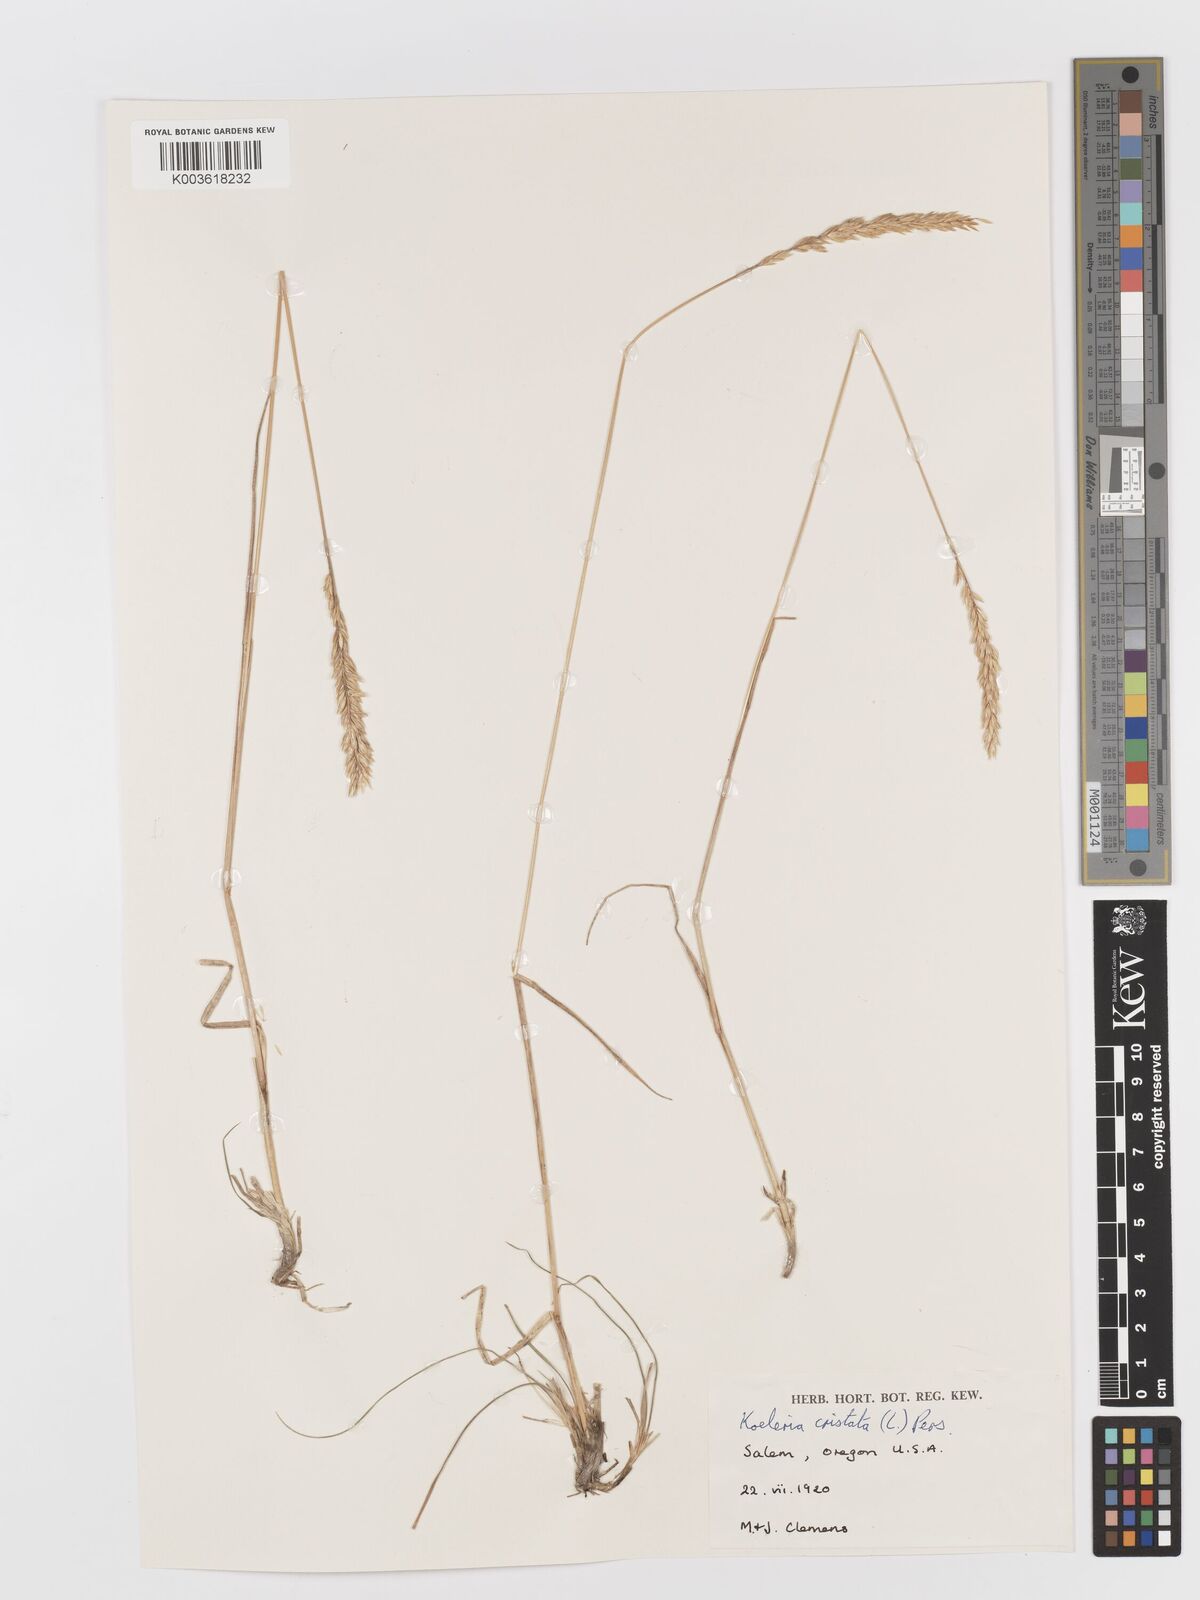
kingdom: Plantae
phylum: Tracheophyta
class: Liliopsida
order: Poales
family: Poaceae
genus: Koeleria
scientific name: Koeleria macrantha
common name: Crested hair-grass
